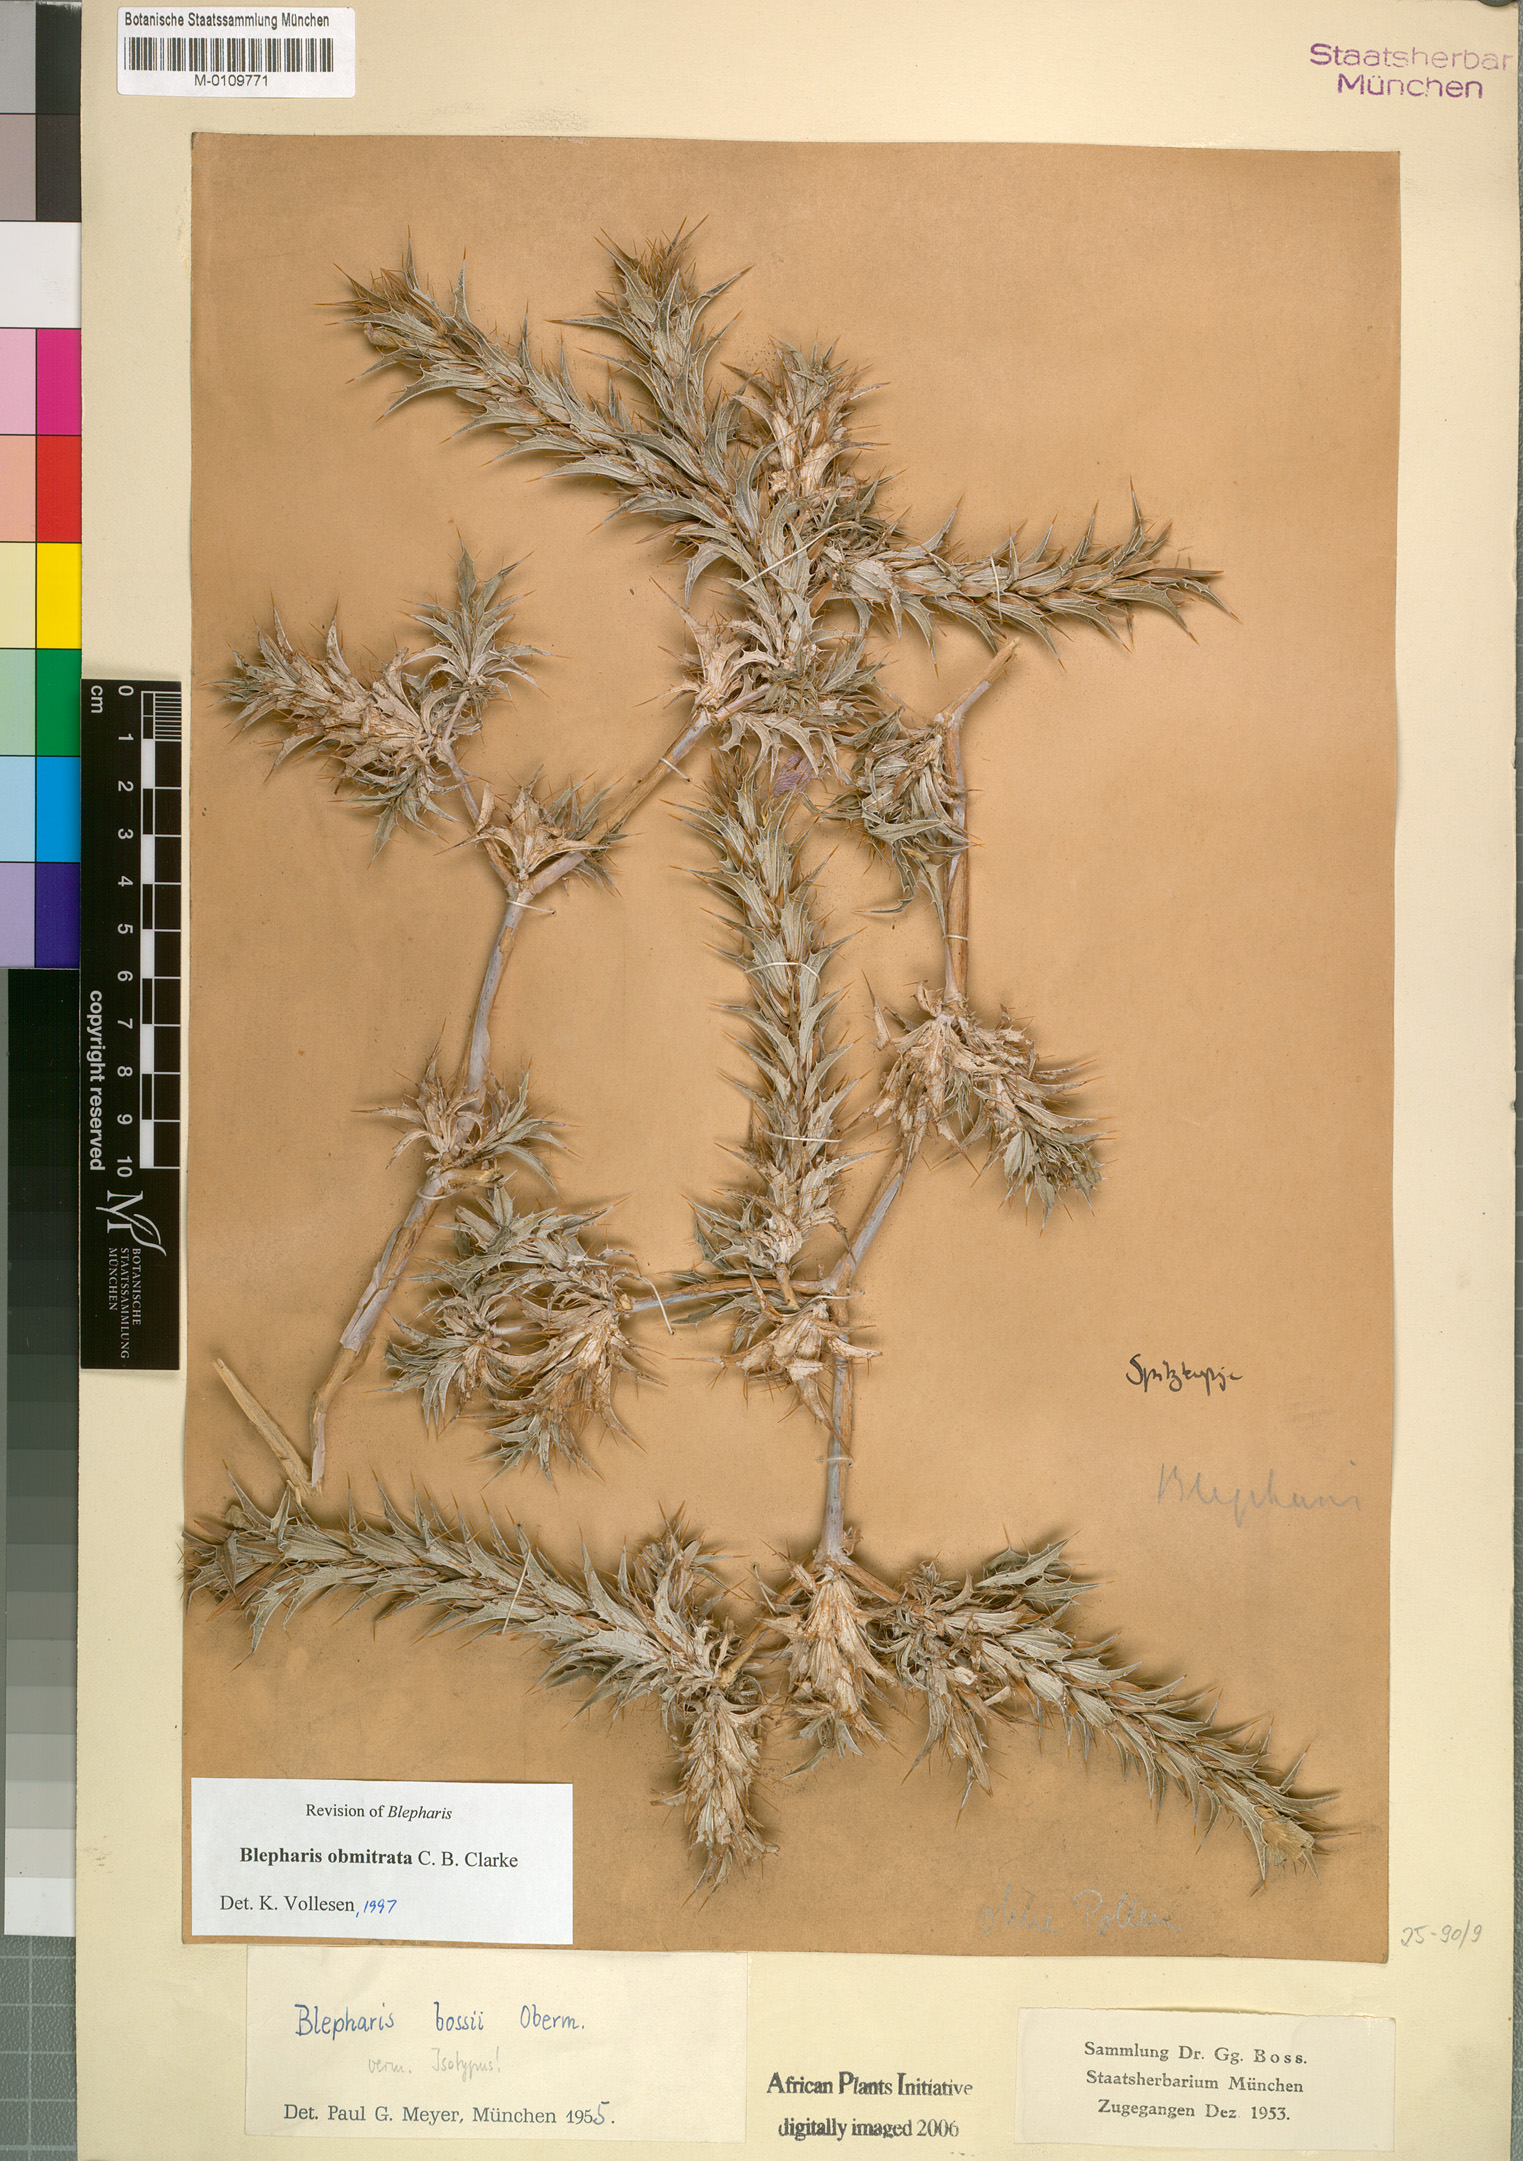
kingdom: Plantae
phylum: Tracheophyta
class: Magnoliopsida
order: Lamiales
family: Acanthaceae
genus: Blepharis
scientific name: Blepharis obmitrata
